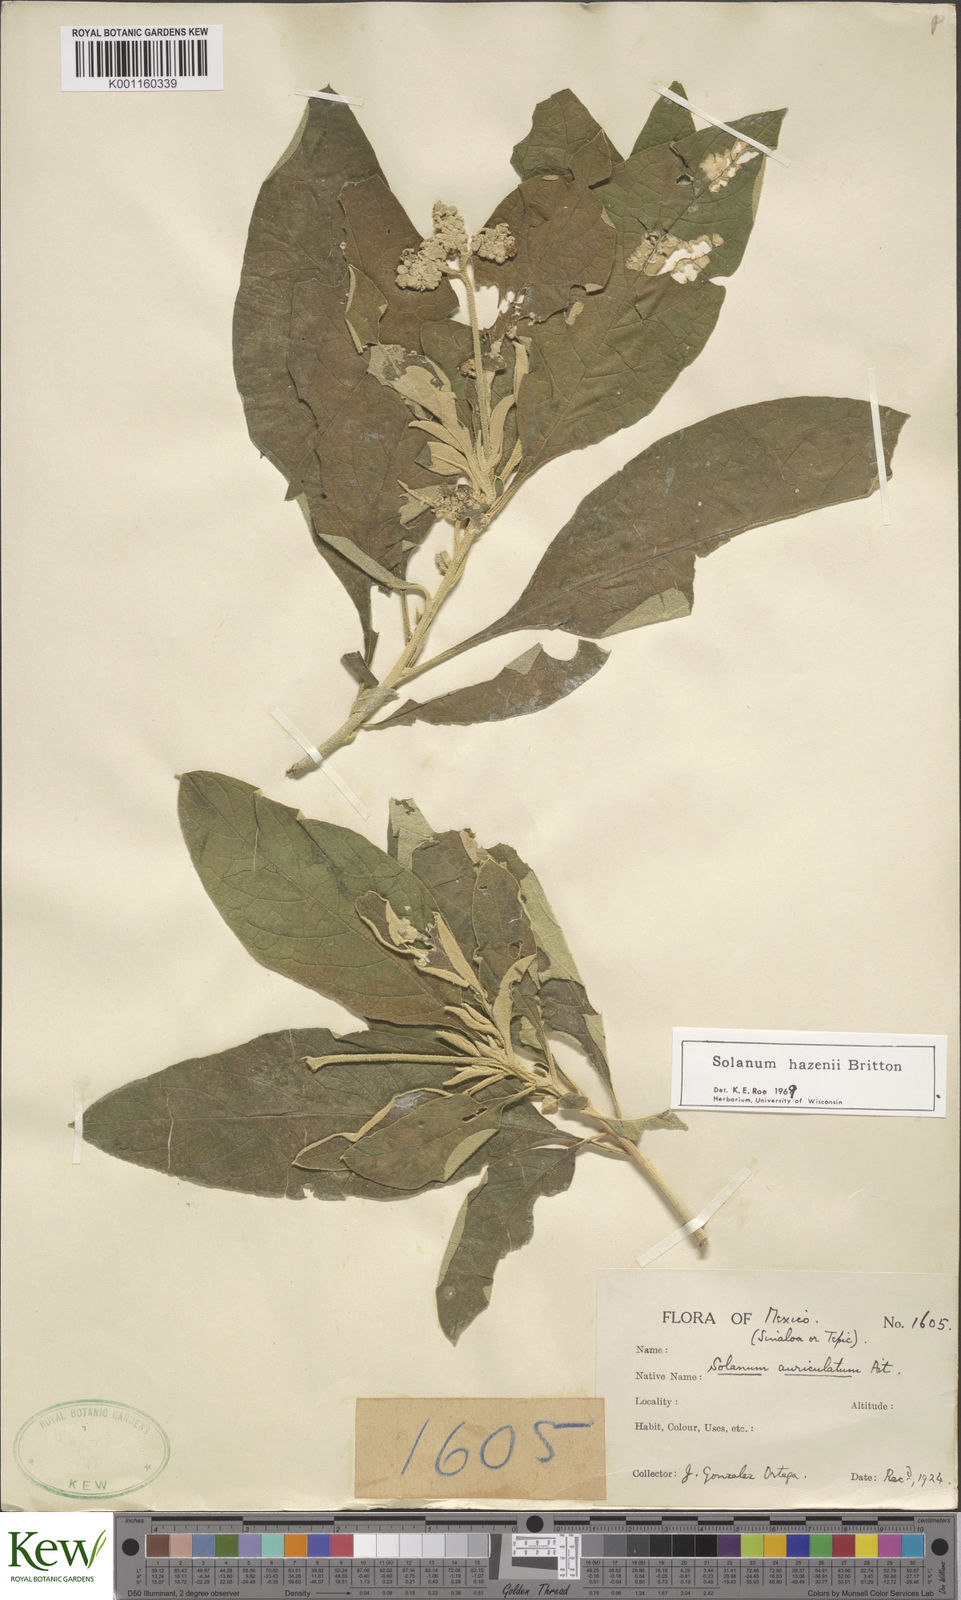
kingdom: Plantae
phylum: Tracheophyta
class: Magnoliopsida
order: Solanales
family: Solanaceae
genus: Solanum
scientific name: Solanum hazenii
